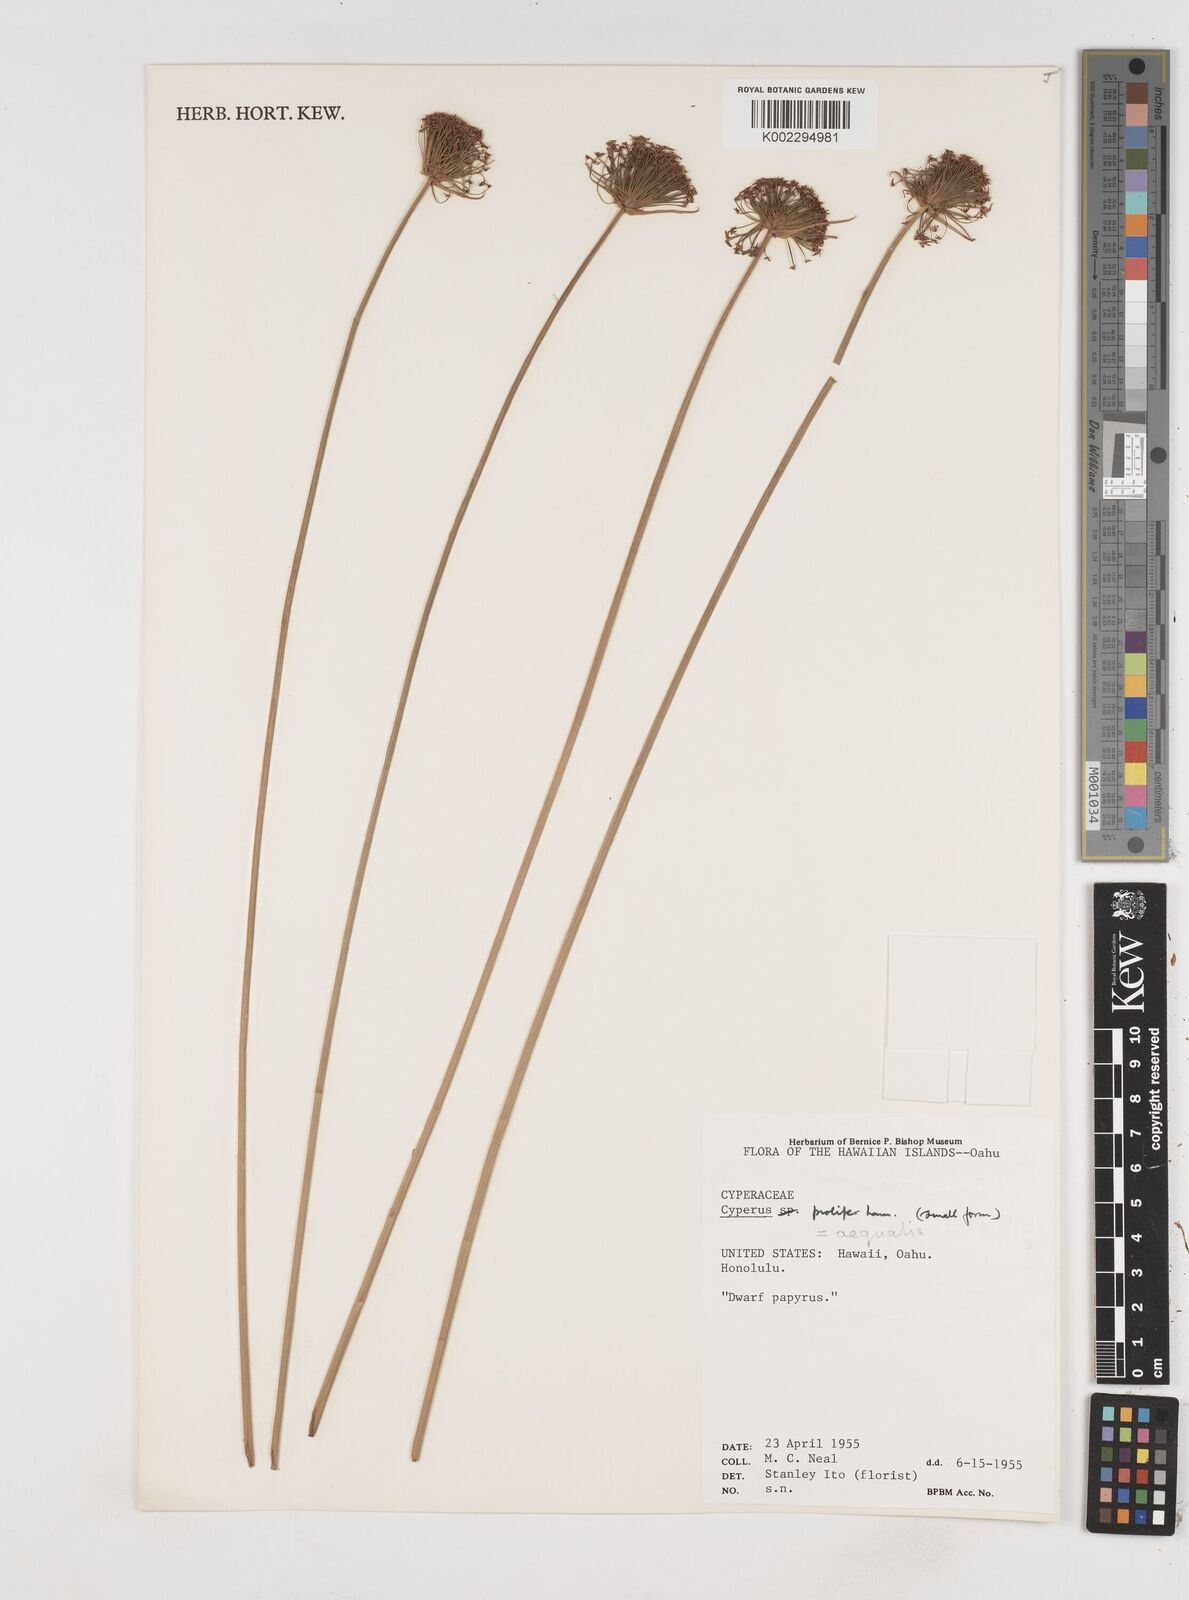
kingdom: Plantae
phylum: Tracheophyta
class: Liliopsida
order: Poales
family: Cyperaceae
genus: Cyperus
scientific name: Cyperus prolifer
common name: Miniature flatsedge
